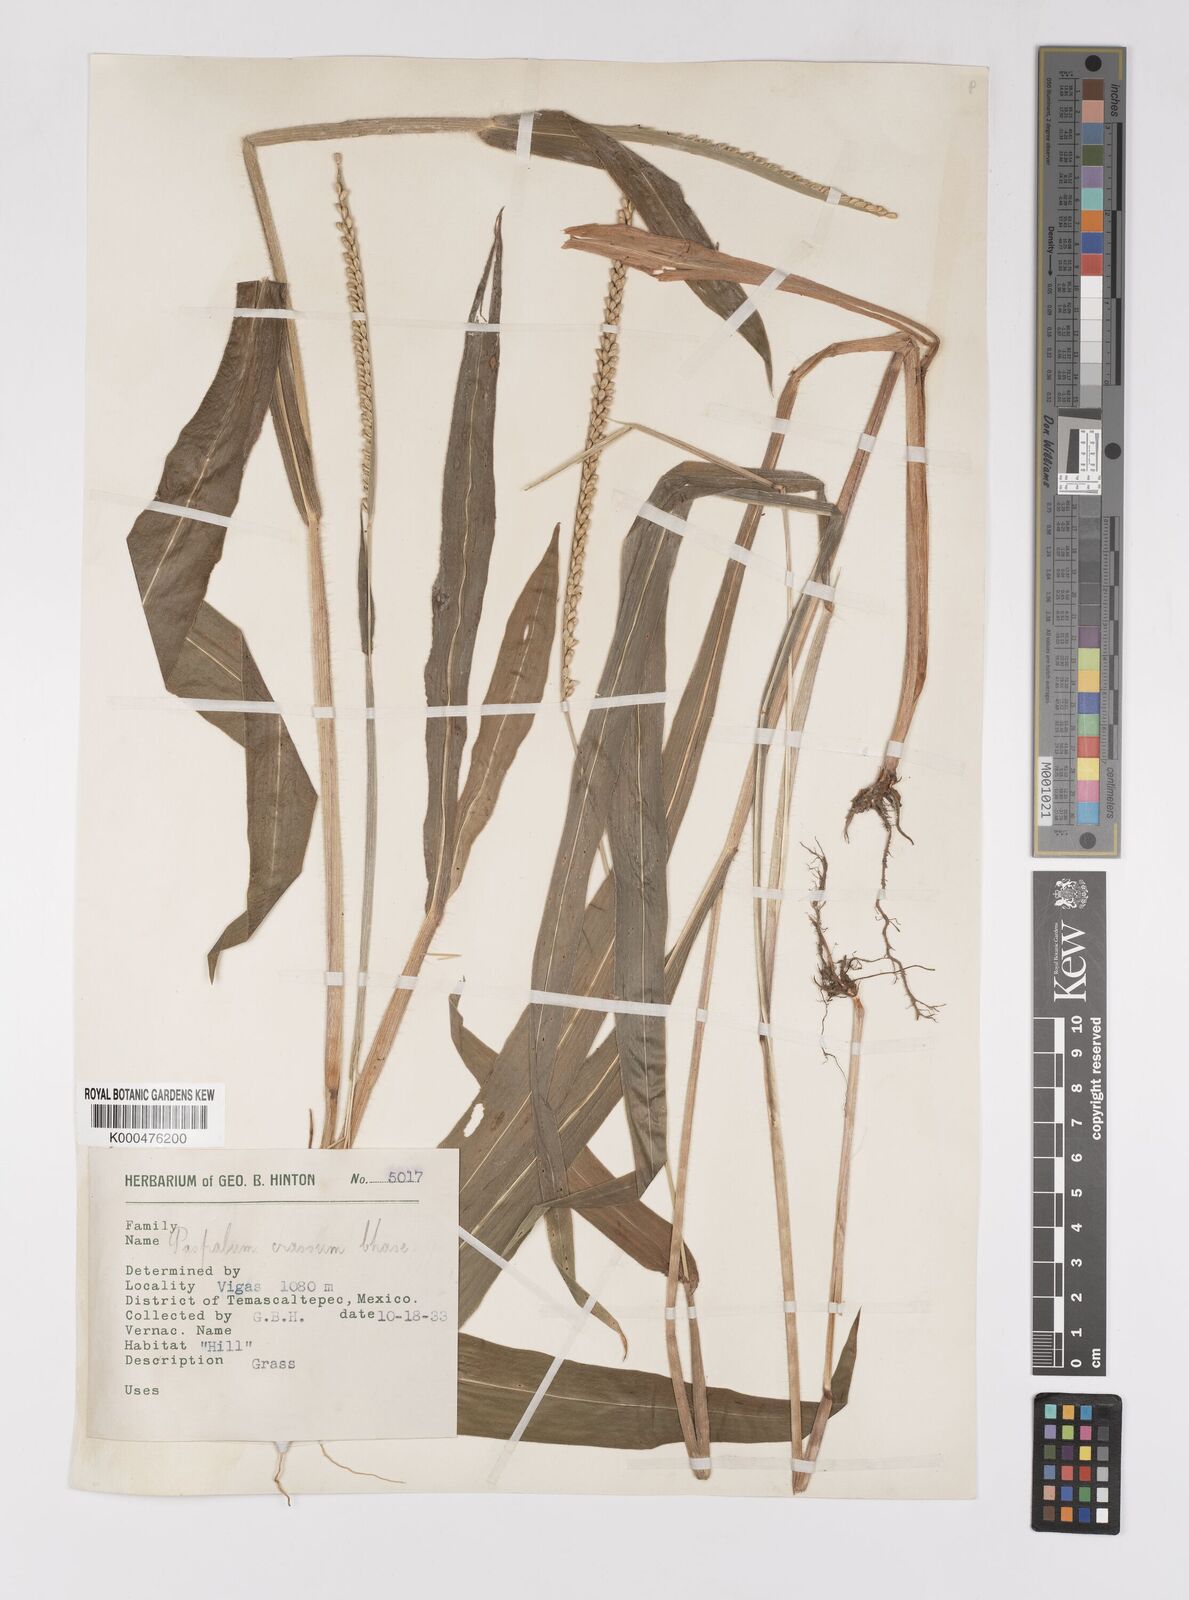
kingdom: Plantae
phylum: Tracheophyta
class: Liliopsida
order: Poales
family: Poaceae
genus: Paspalum
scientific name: Paspalum crassum
